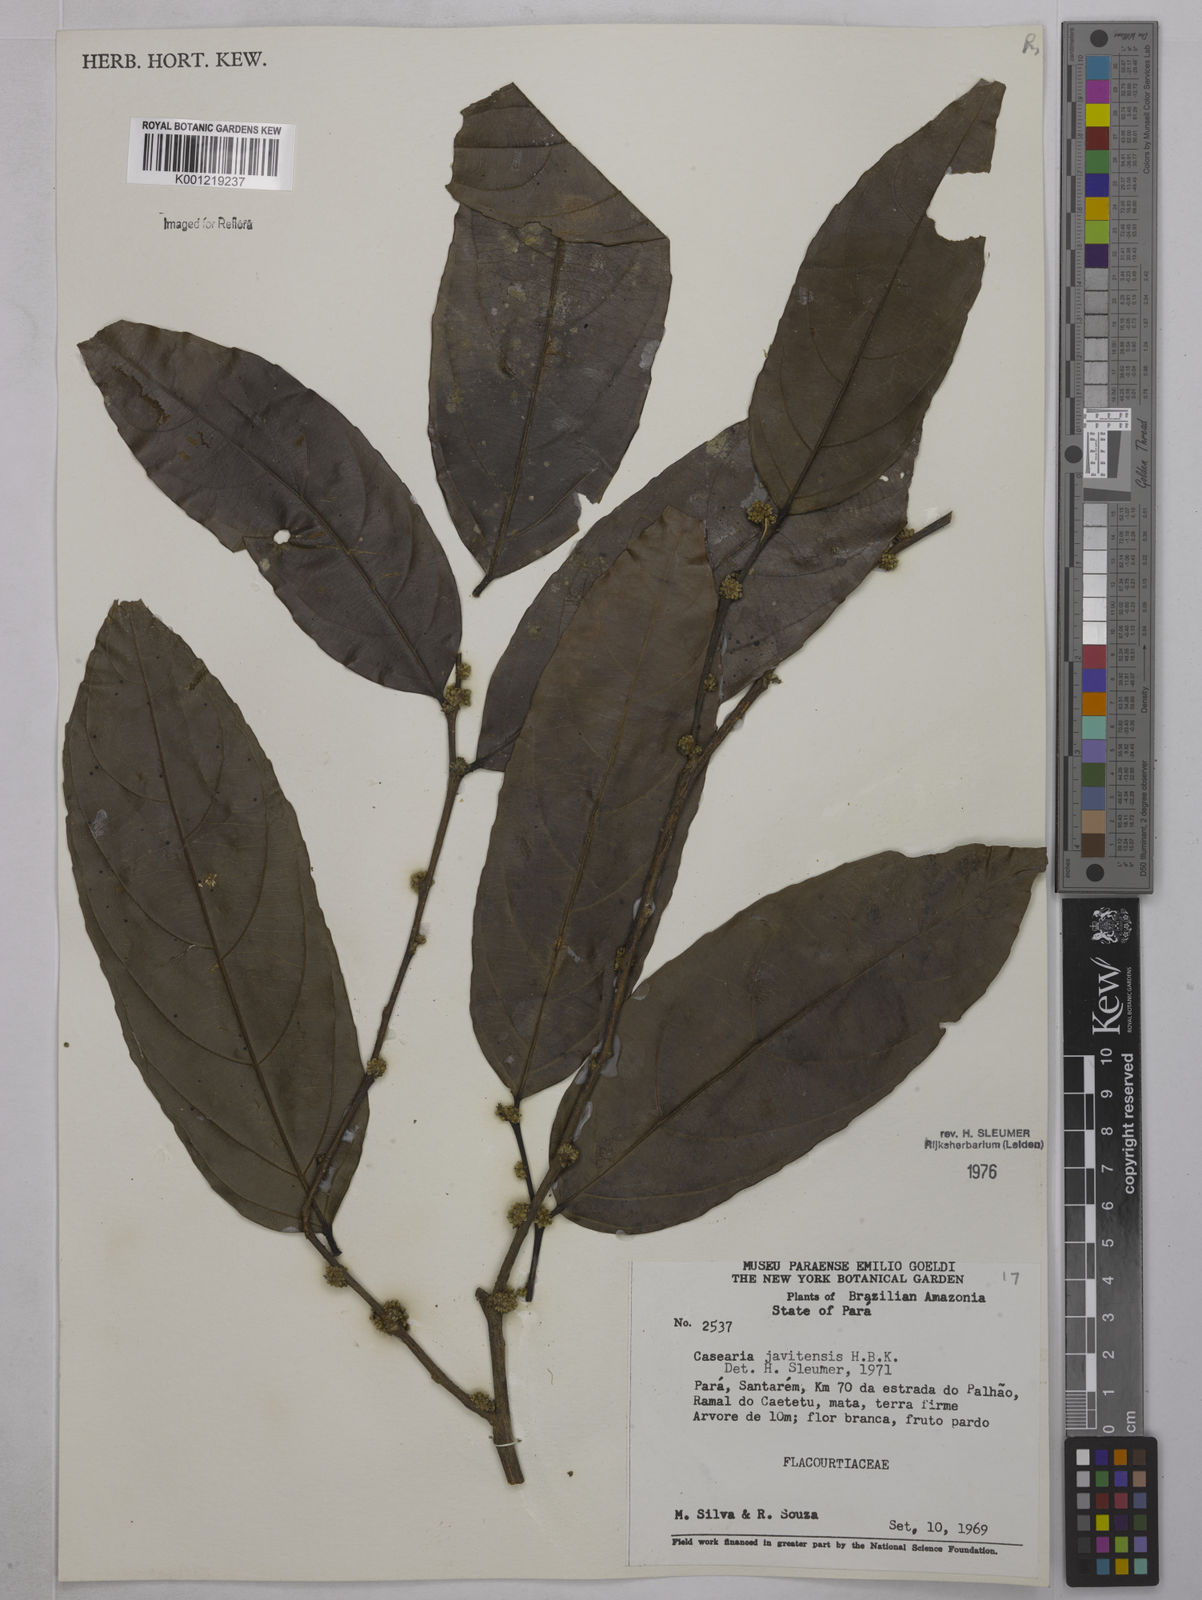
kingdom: Plantae
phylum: Tracheophyta
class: Magnoliopsida
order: Malpighiales
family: Salicaceae
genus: Piparea
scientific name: Piparea multiflora
